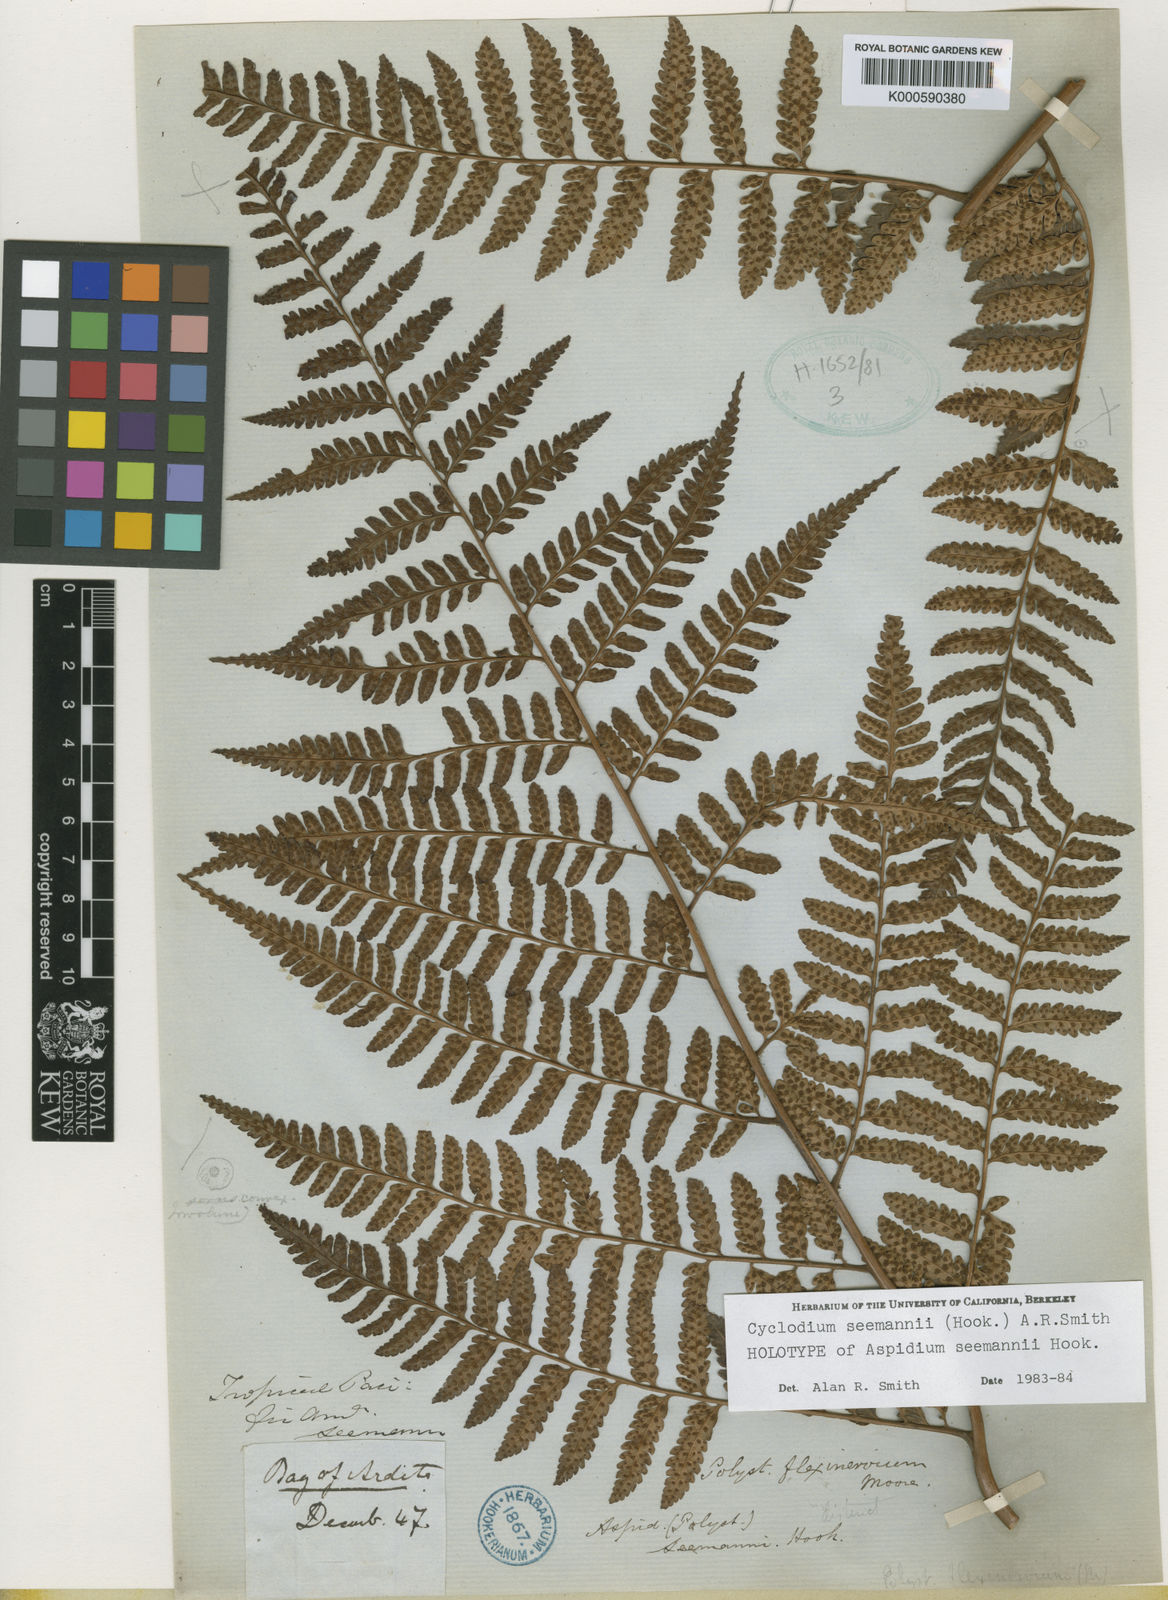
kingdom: Plantae
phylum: Tracheophyta
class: Polypodiopsida
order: Polypodiales
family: Dryopteridaceae
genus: Cyclodium
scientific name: Cyclodium seemannii
